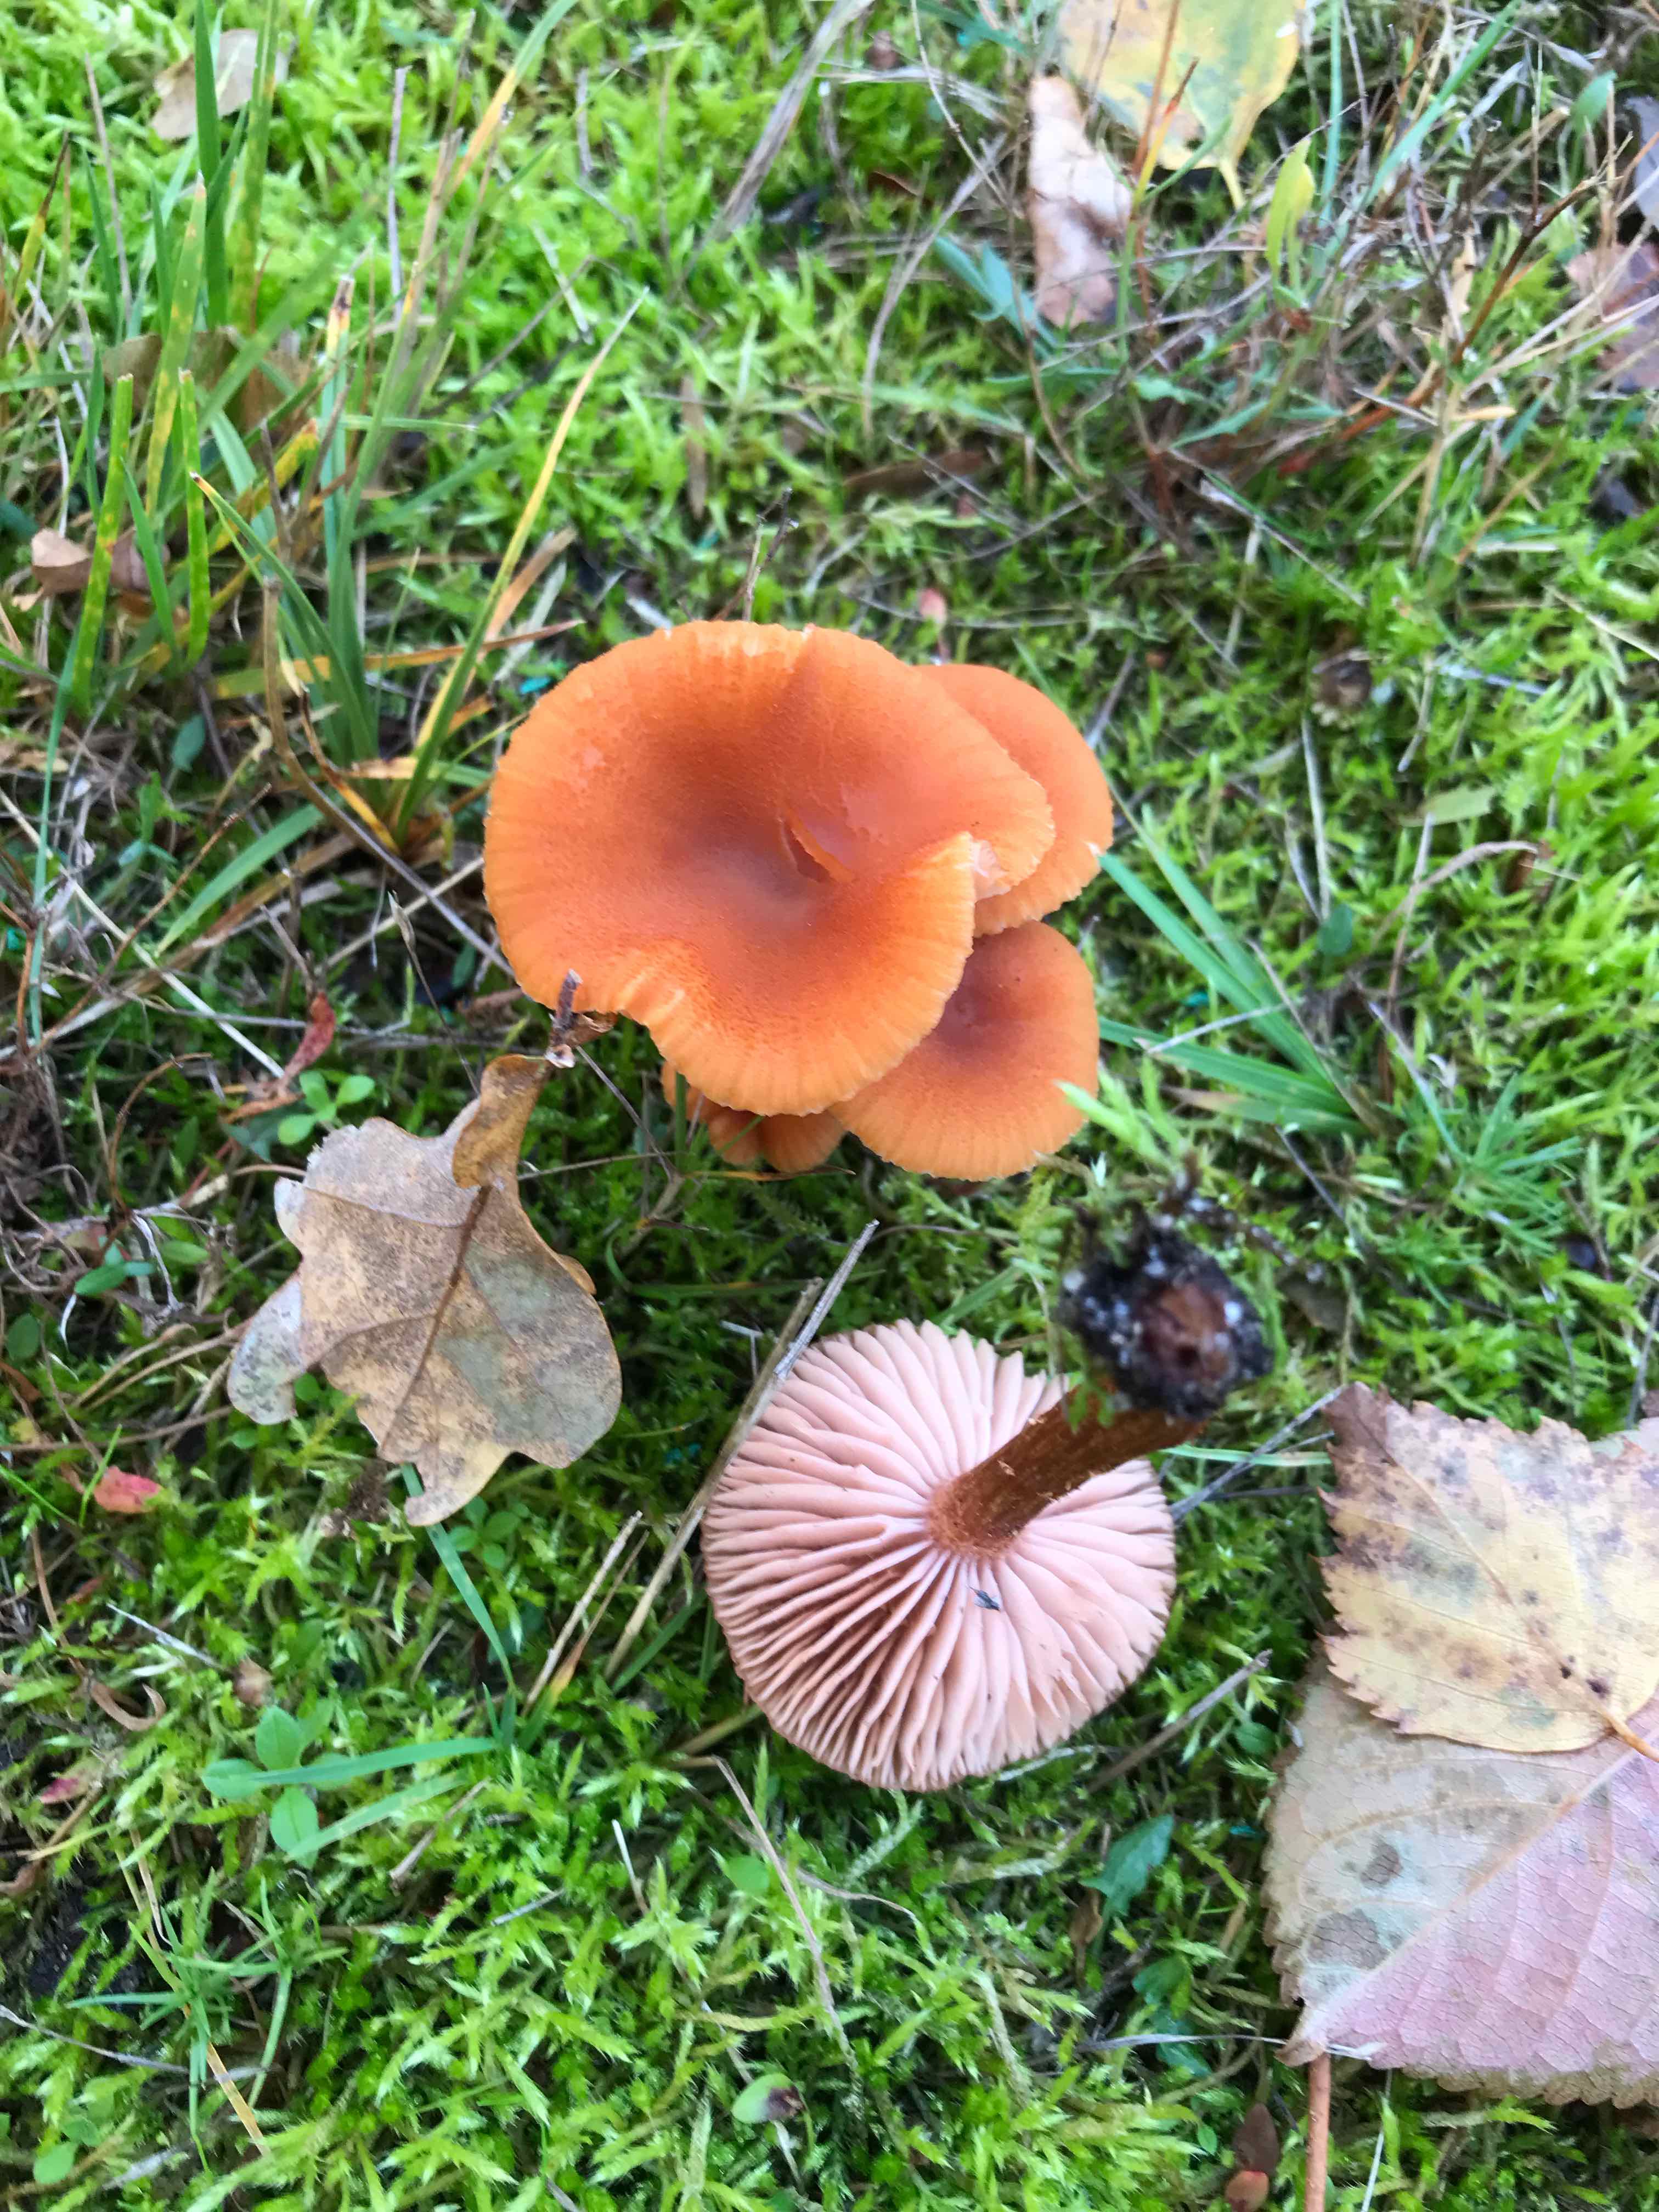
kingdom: Fungi
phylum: Basidiomycota
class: Agaricomycetes
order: Agaricales
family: Hydnangiaceae
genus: Laccaria
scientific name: Laccaria
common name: ametysthat
